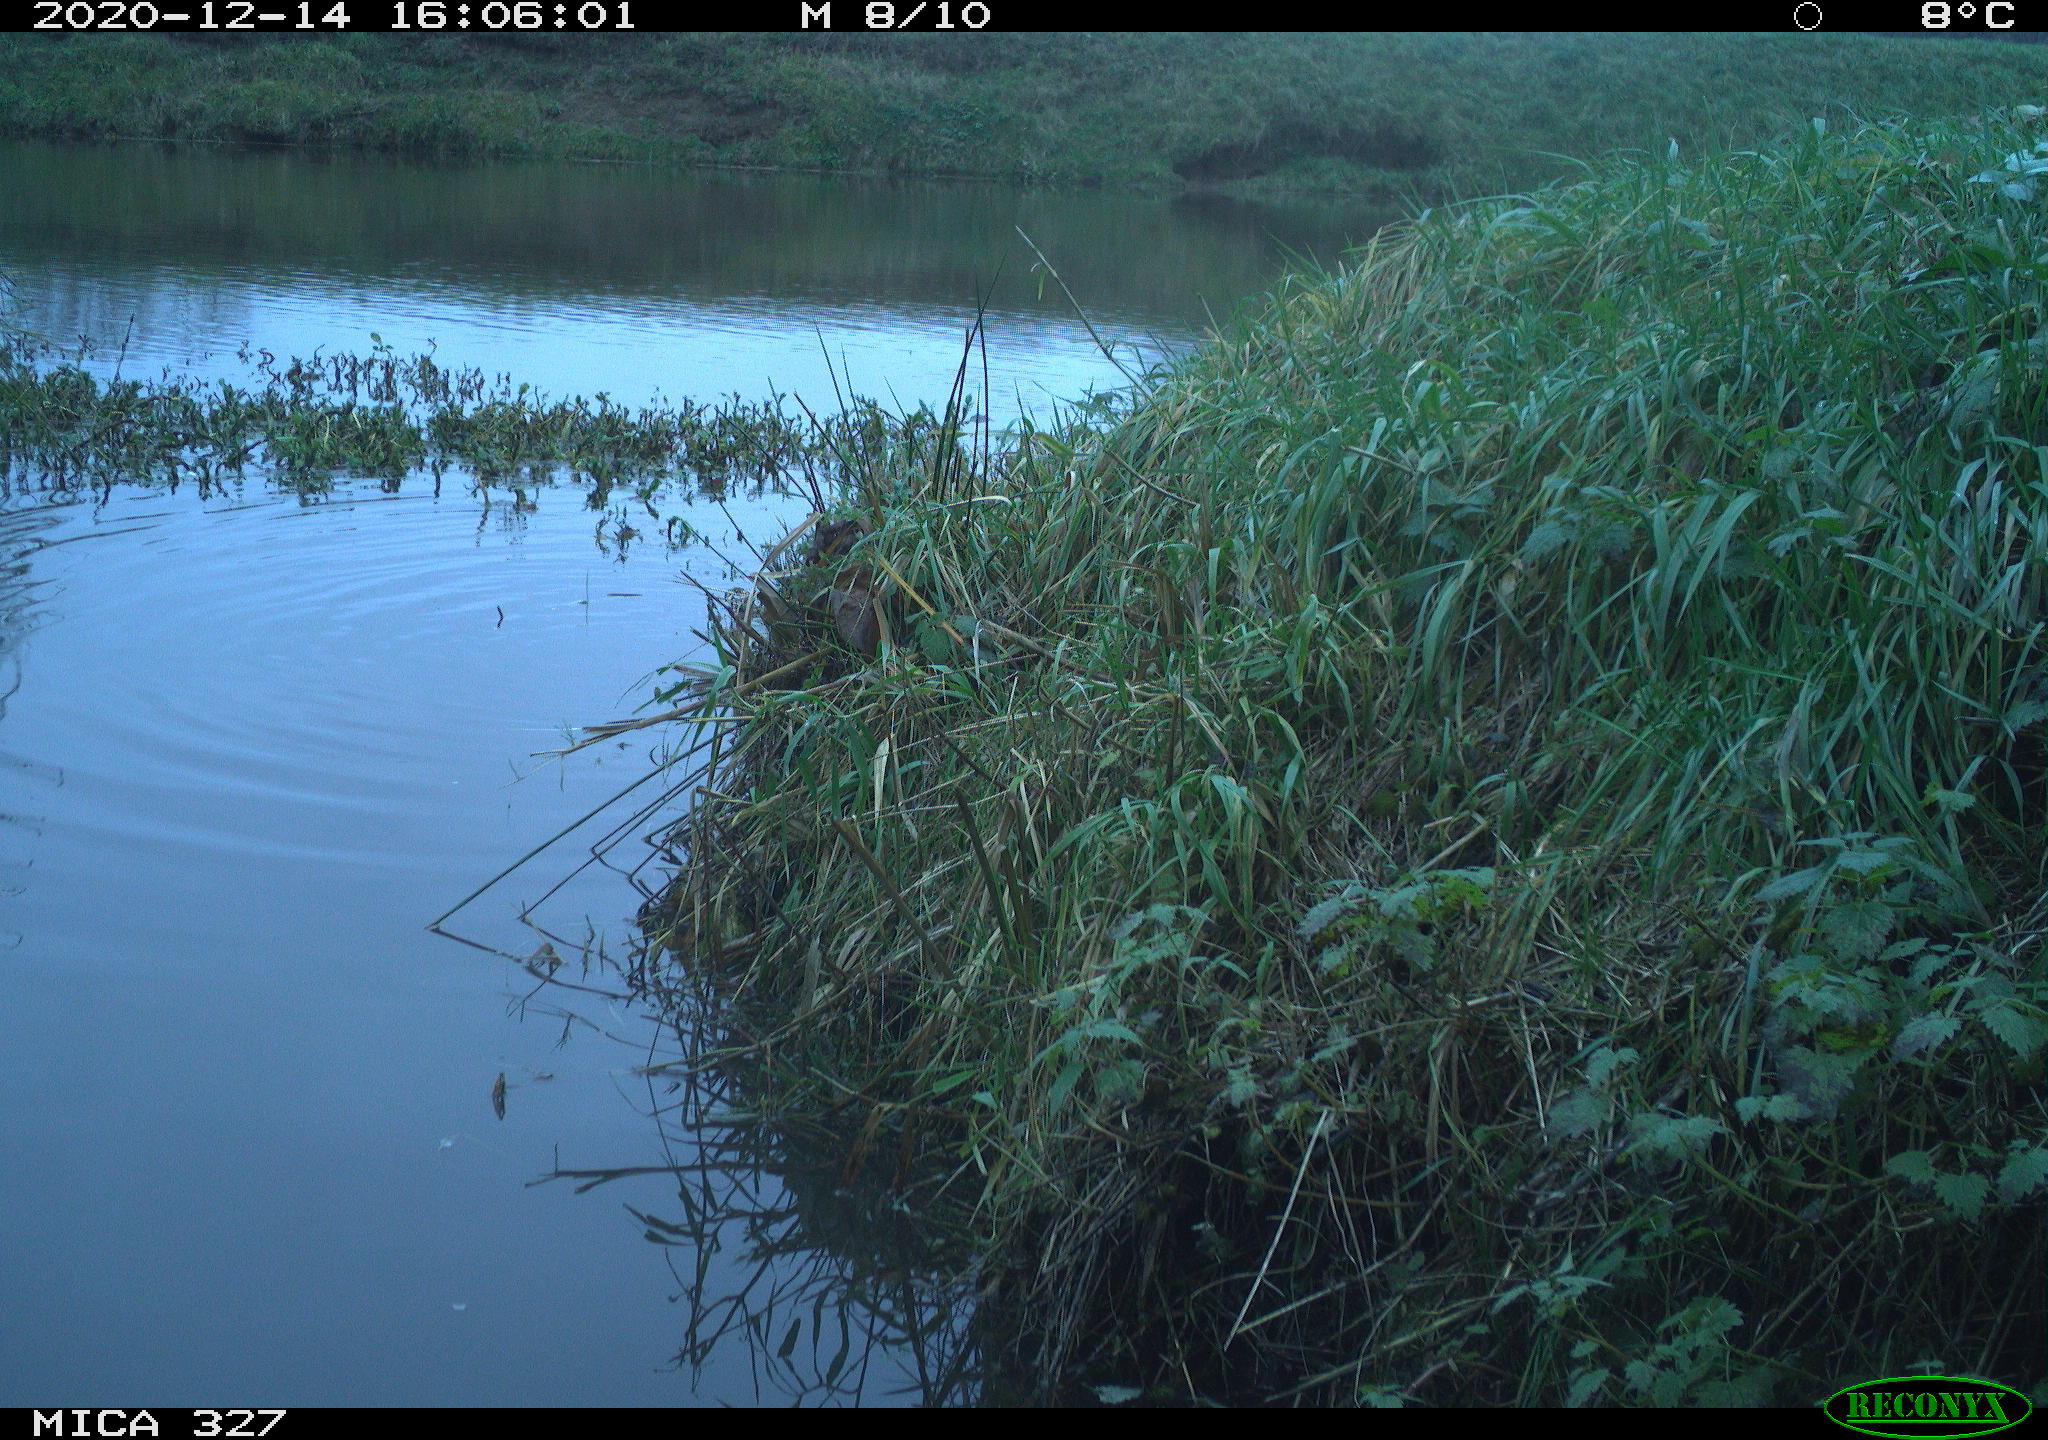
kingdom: Animalia
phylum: Chordata
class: Mammalia
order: Carnivora
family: Canidae
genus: Canis
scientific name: Canis lupus
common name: Gray wolf
